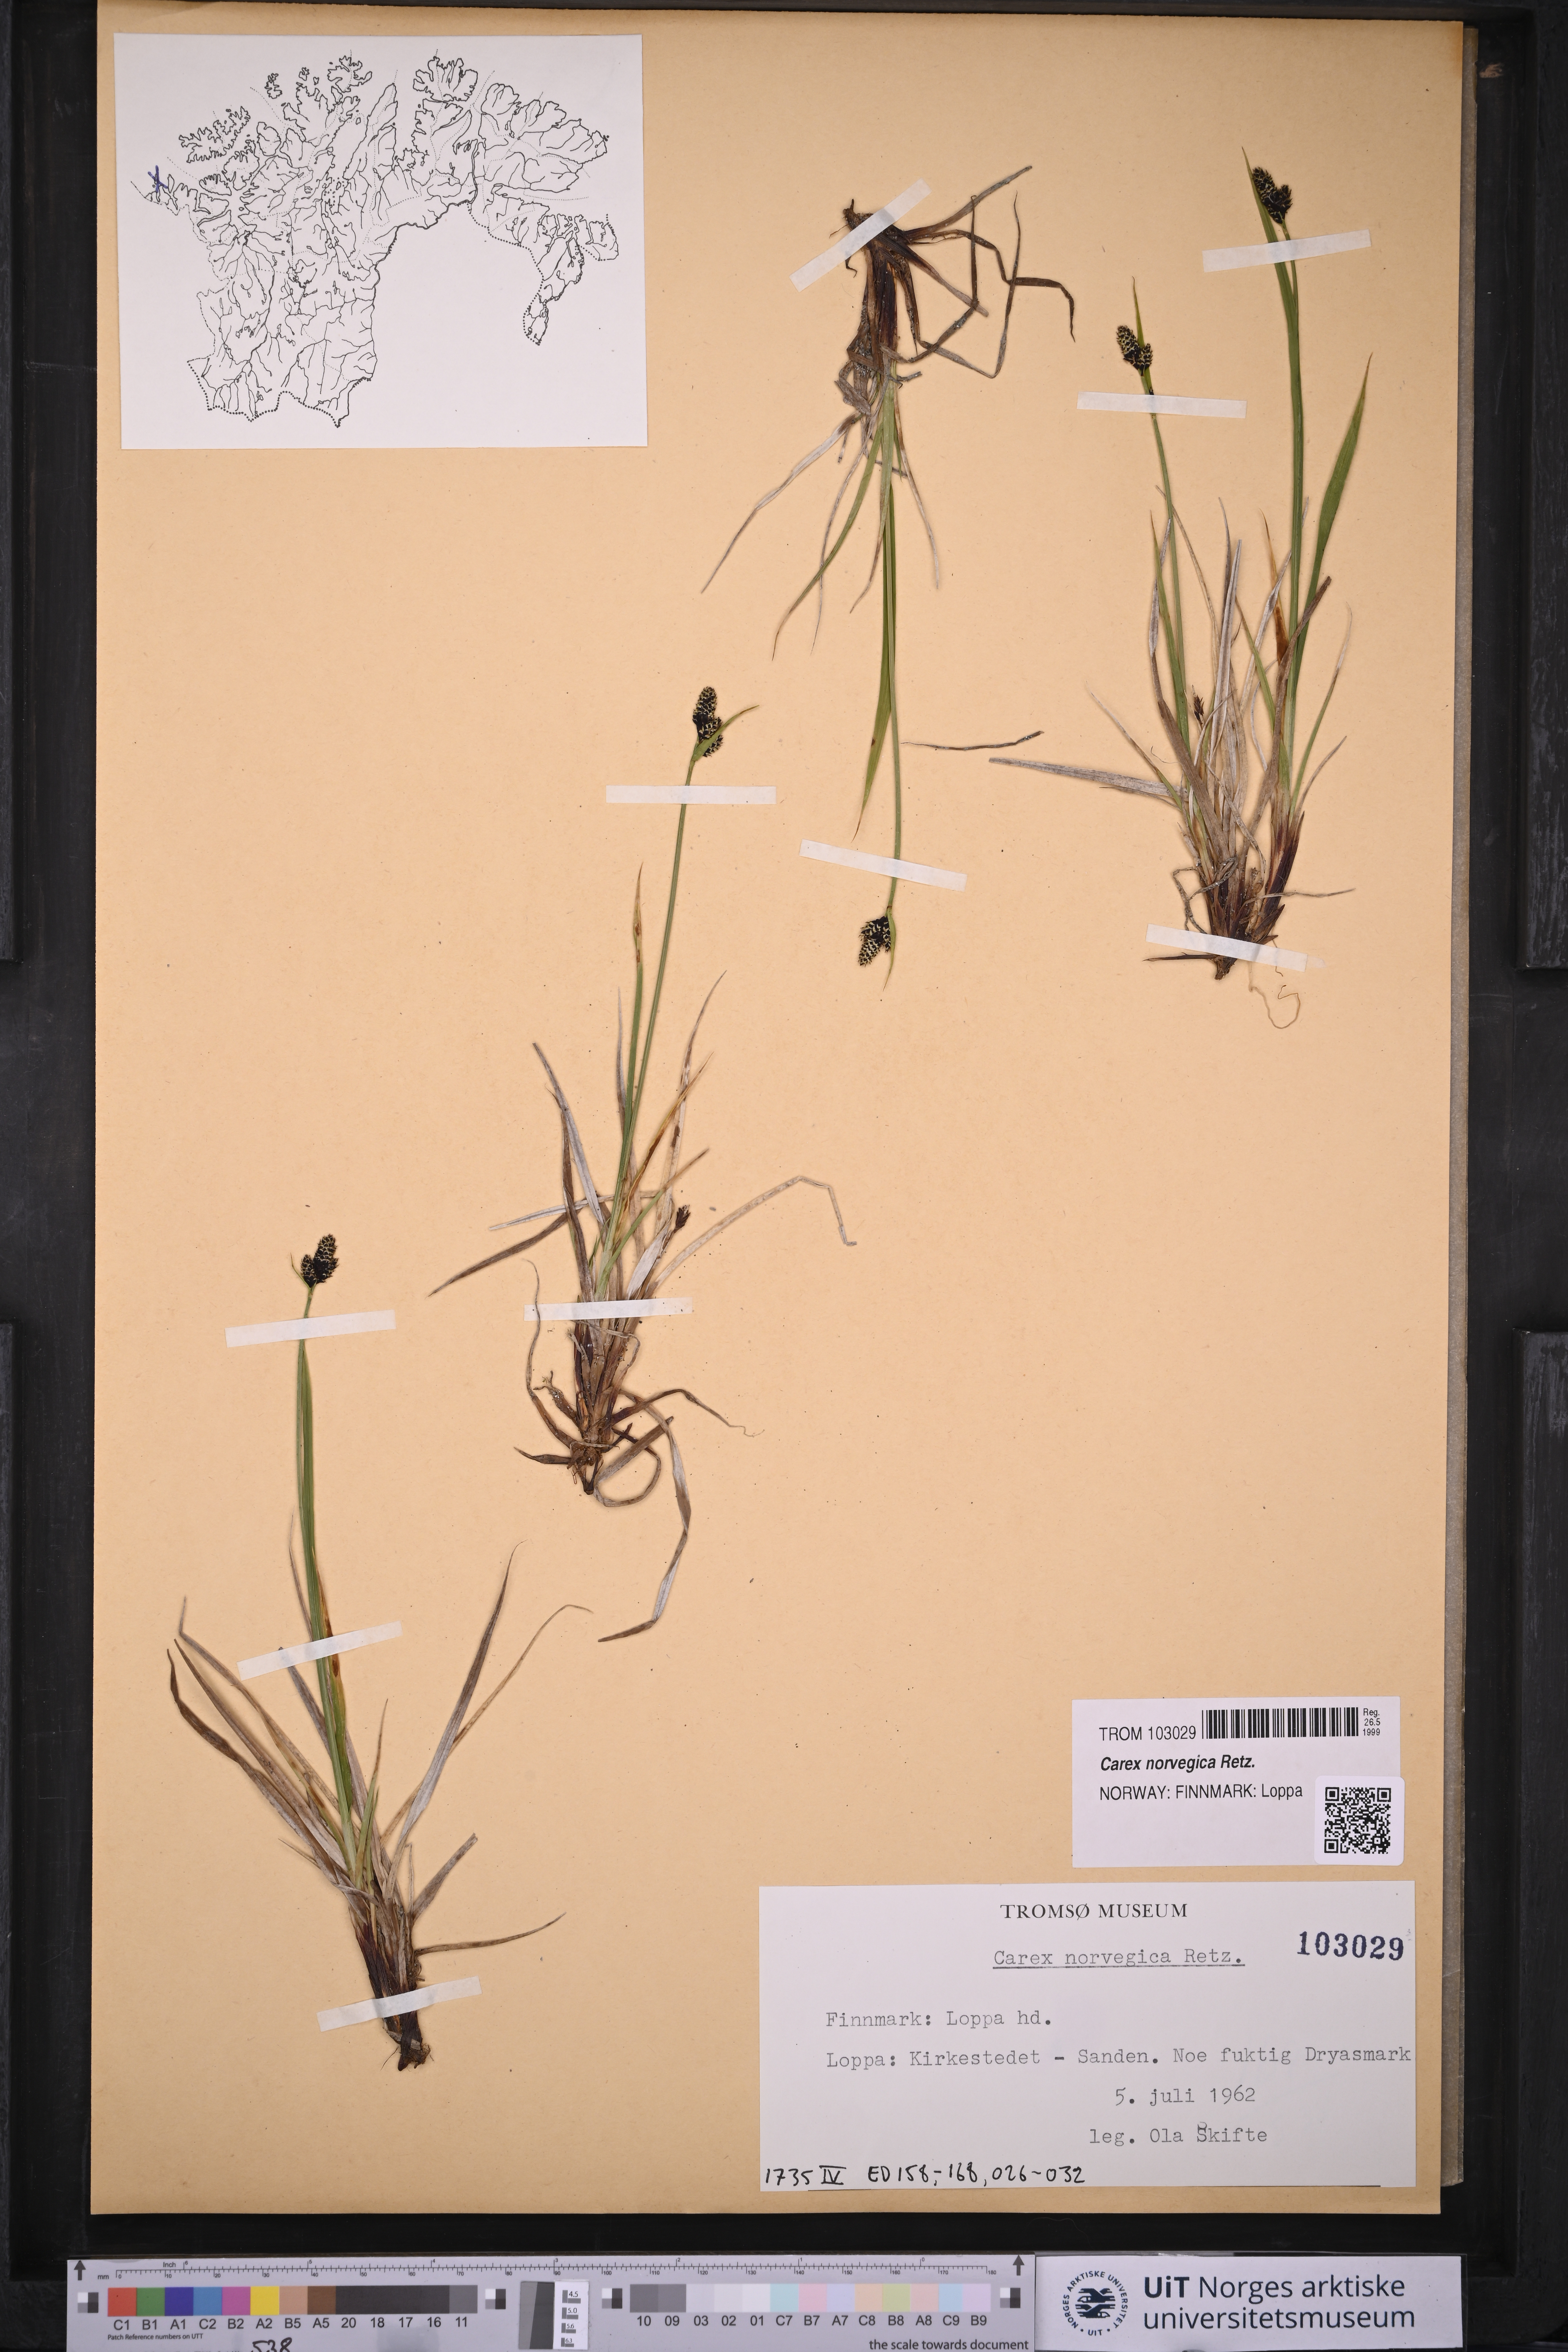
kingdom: Plantae
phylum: Tracheophyta
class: Liliopsida
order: Poales
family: Cyperaceae
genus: Carex
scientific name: Carex norvegica
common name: Close-headed alpine-sedge
